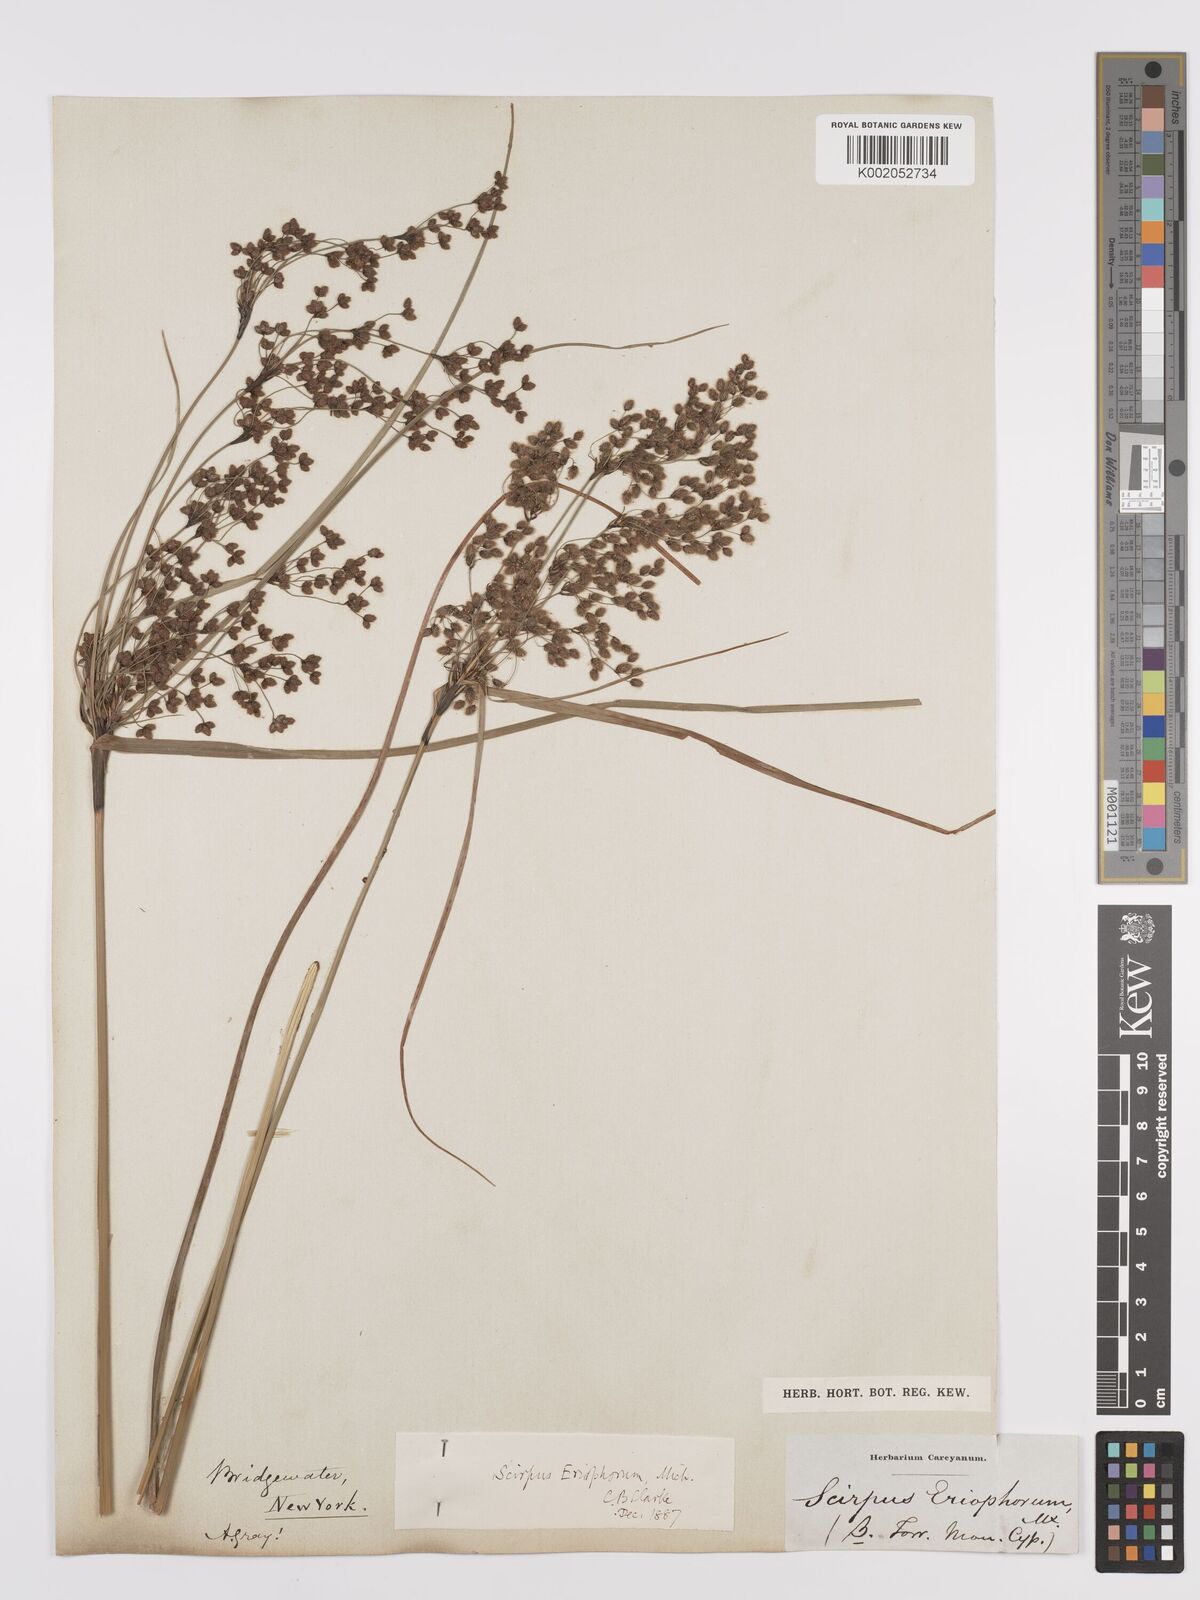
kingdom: Plantae
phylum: Tracheophyta
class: Liliopsida
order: Poales
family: Cyperaceae
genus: Scirpus
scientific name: Scirpus cyperinus
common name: Black-sheathed bulrush
